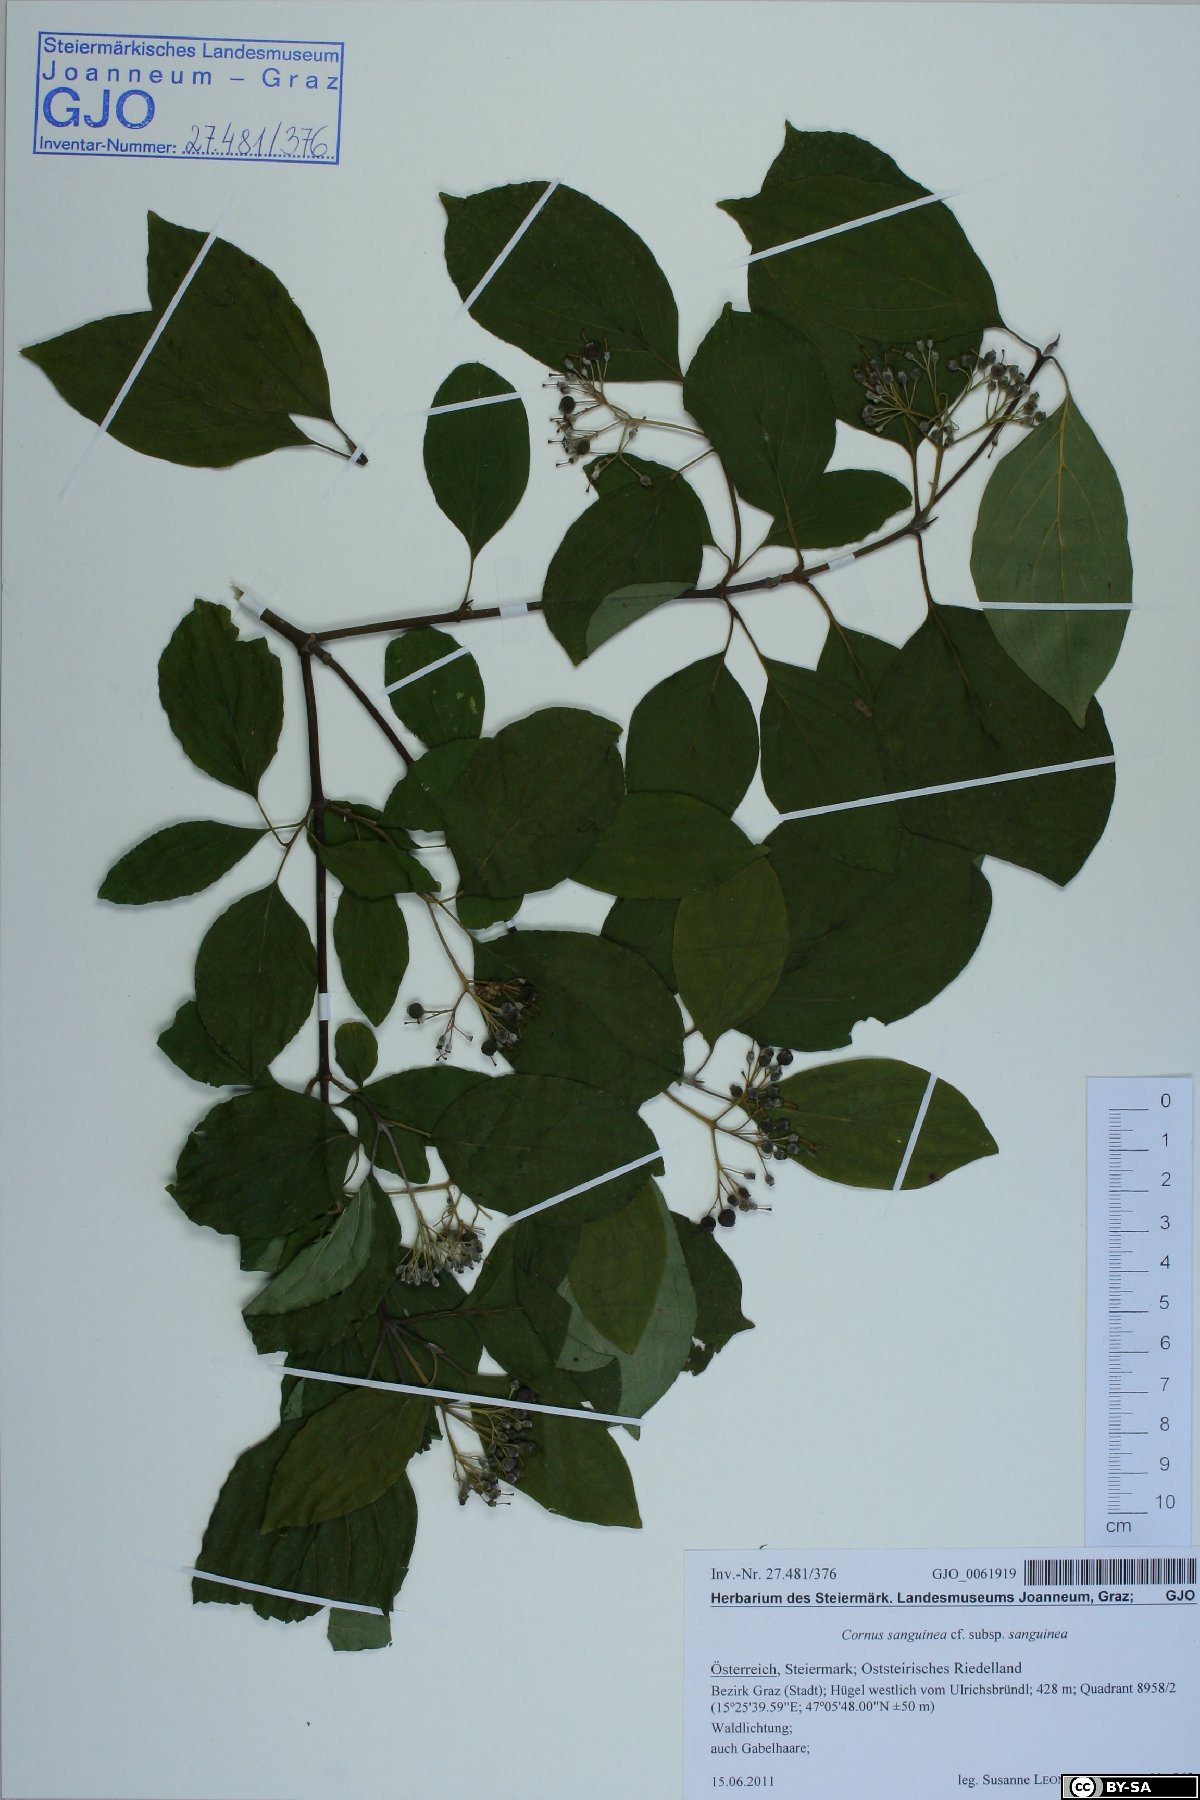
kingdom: Plantae
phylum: Tracheophyta
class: Magnoliopsida
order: Cornales
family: Cornaceae
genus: Cornus
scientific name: Cornus sanguinea
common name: Dogwood
